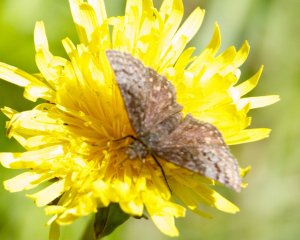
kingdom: Animalia
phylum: Arthropoda
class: Insecta
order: Lepidoptera
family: Hesperiidae
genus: Erynnis
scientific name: Erynnis icelus
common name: Dreamy Duskywing
